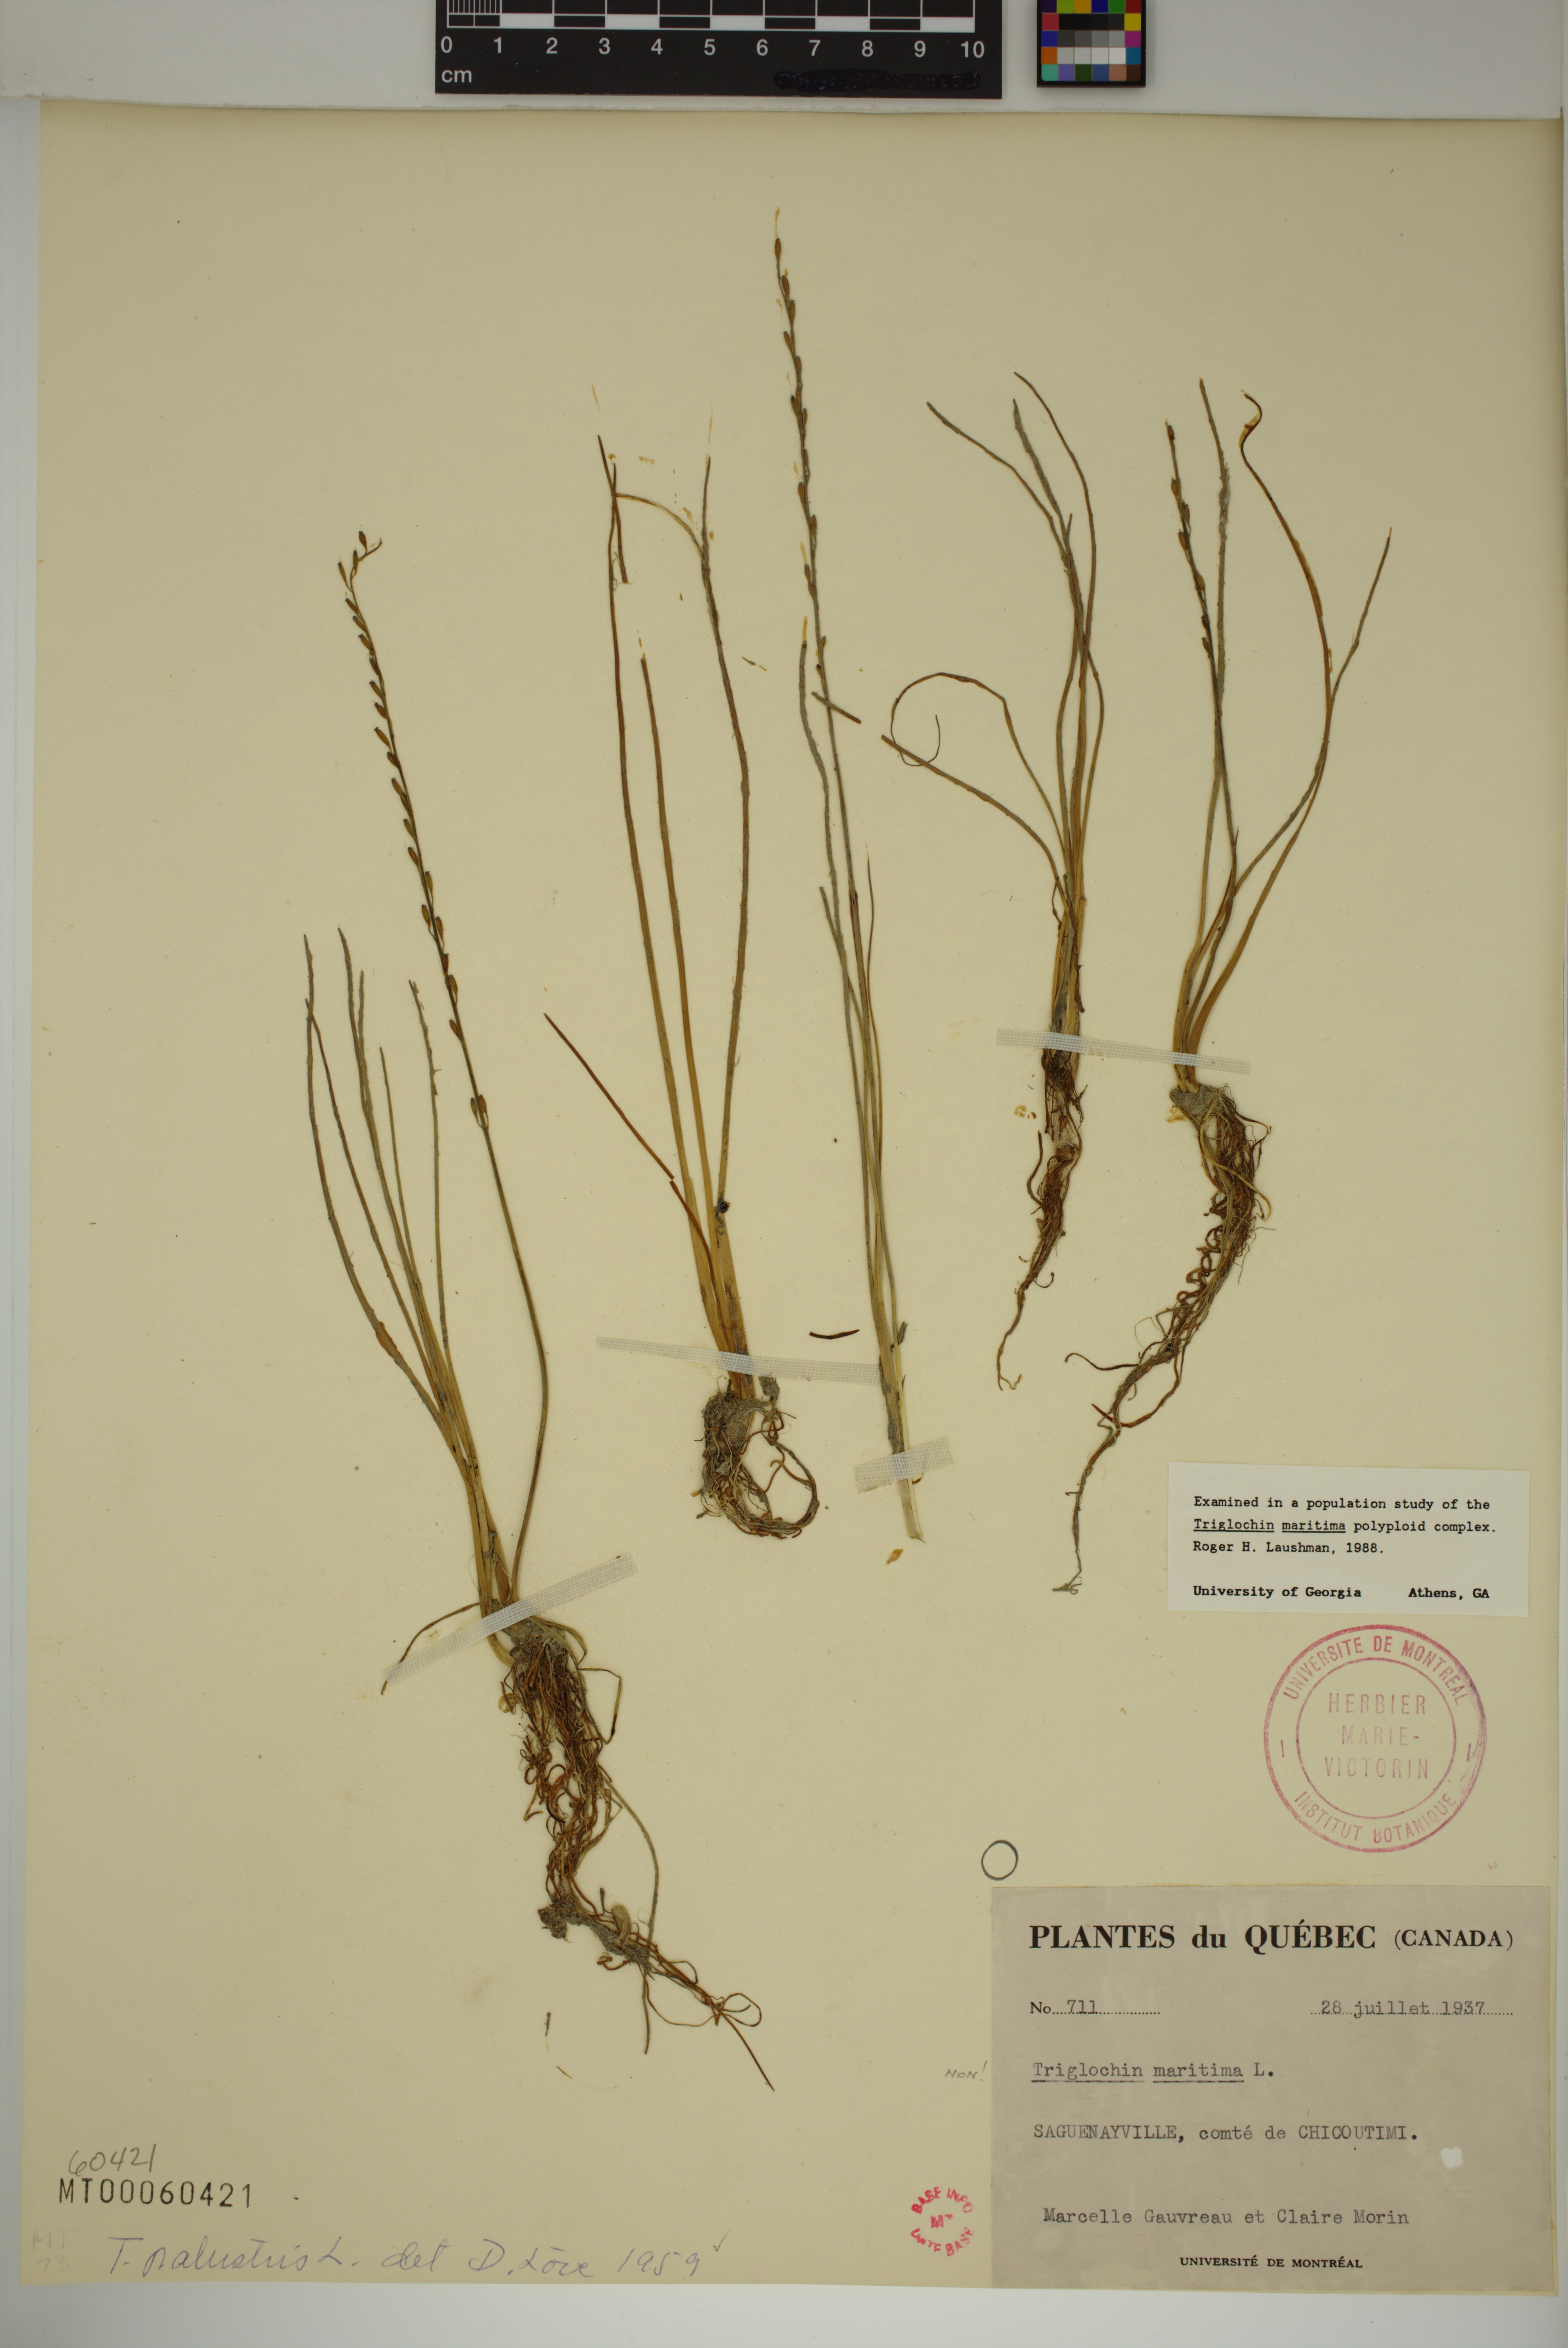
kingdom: Plantae
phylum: Tracheophyta
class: Liliopsida
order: Alismatales
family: Juncaginaceae
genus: Triglochin
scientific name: Triglochin palustris
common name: Marsh arrowgrass
